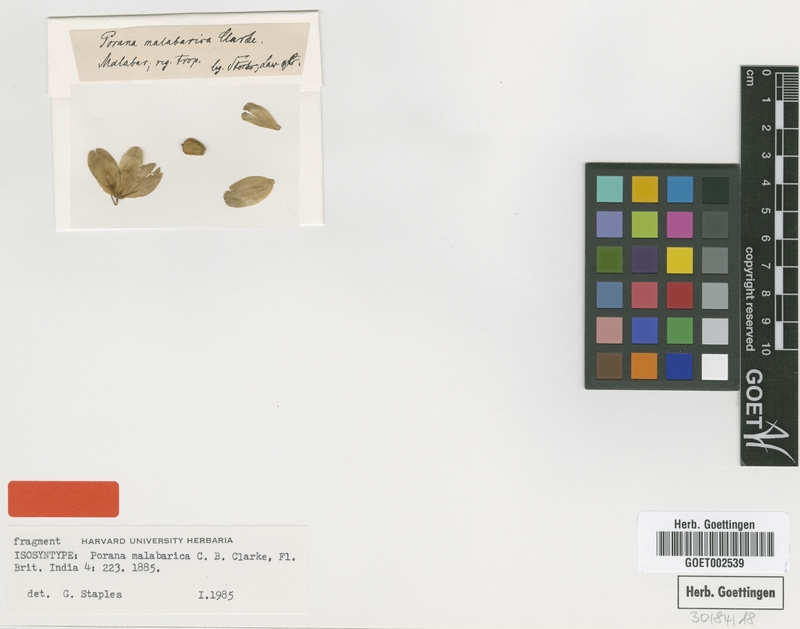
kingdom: Plantae
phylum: Tracheophyta
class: Magnoliopsida
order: Solanales
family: Convolvulaceae
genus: Dinetus
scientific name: Dinetus malabaricus
